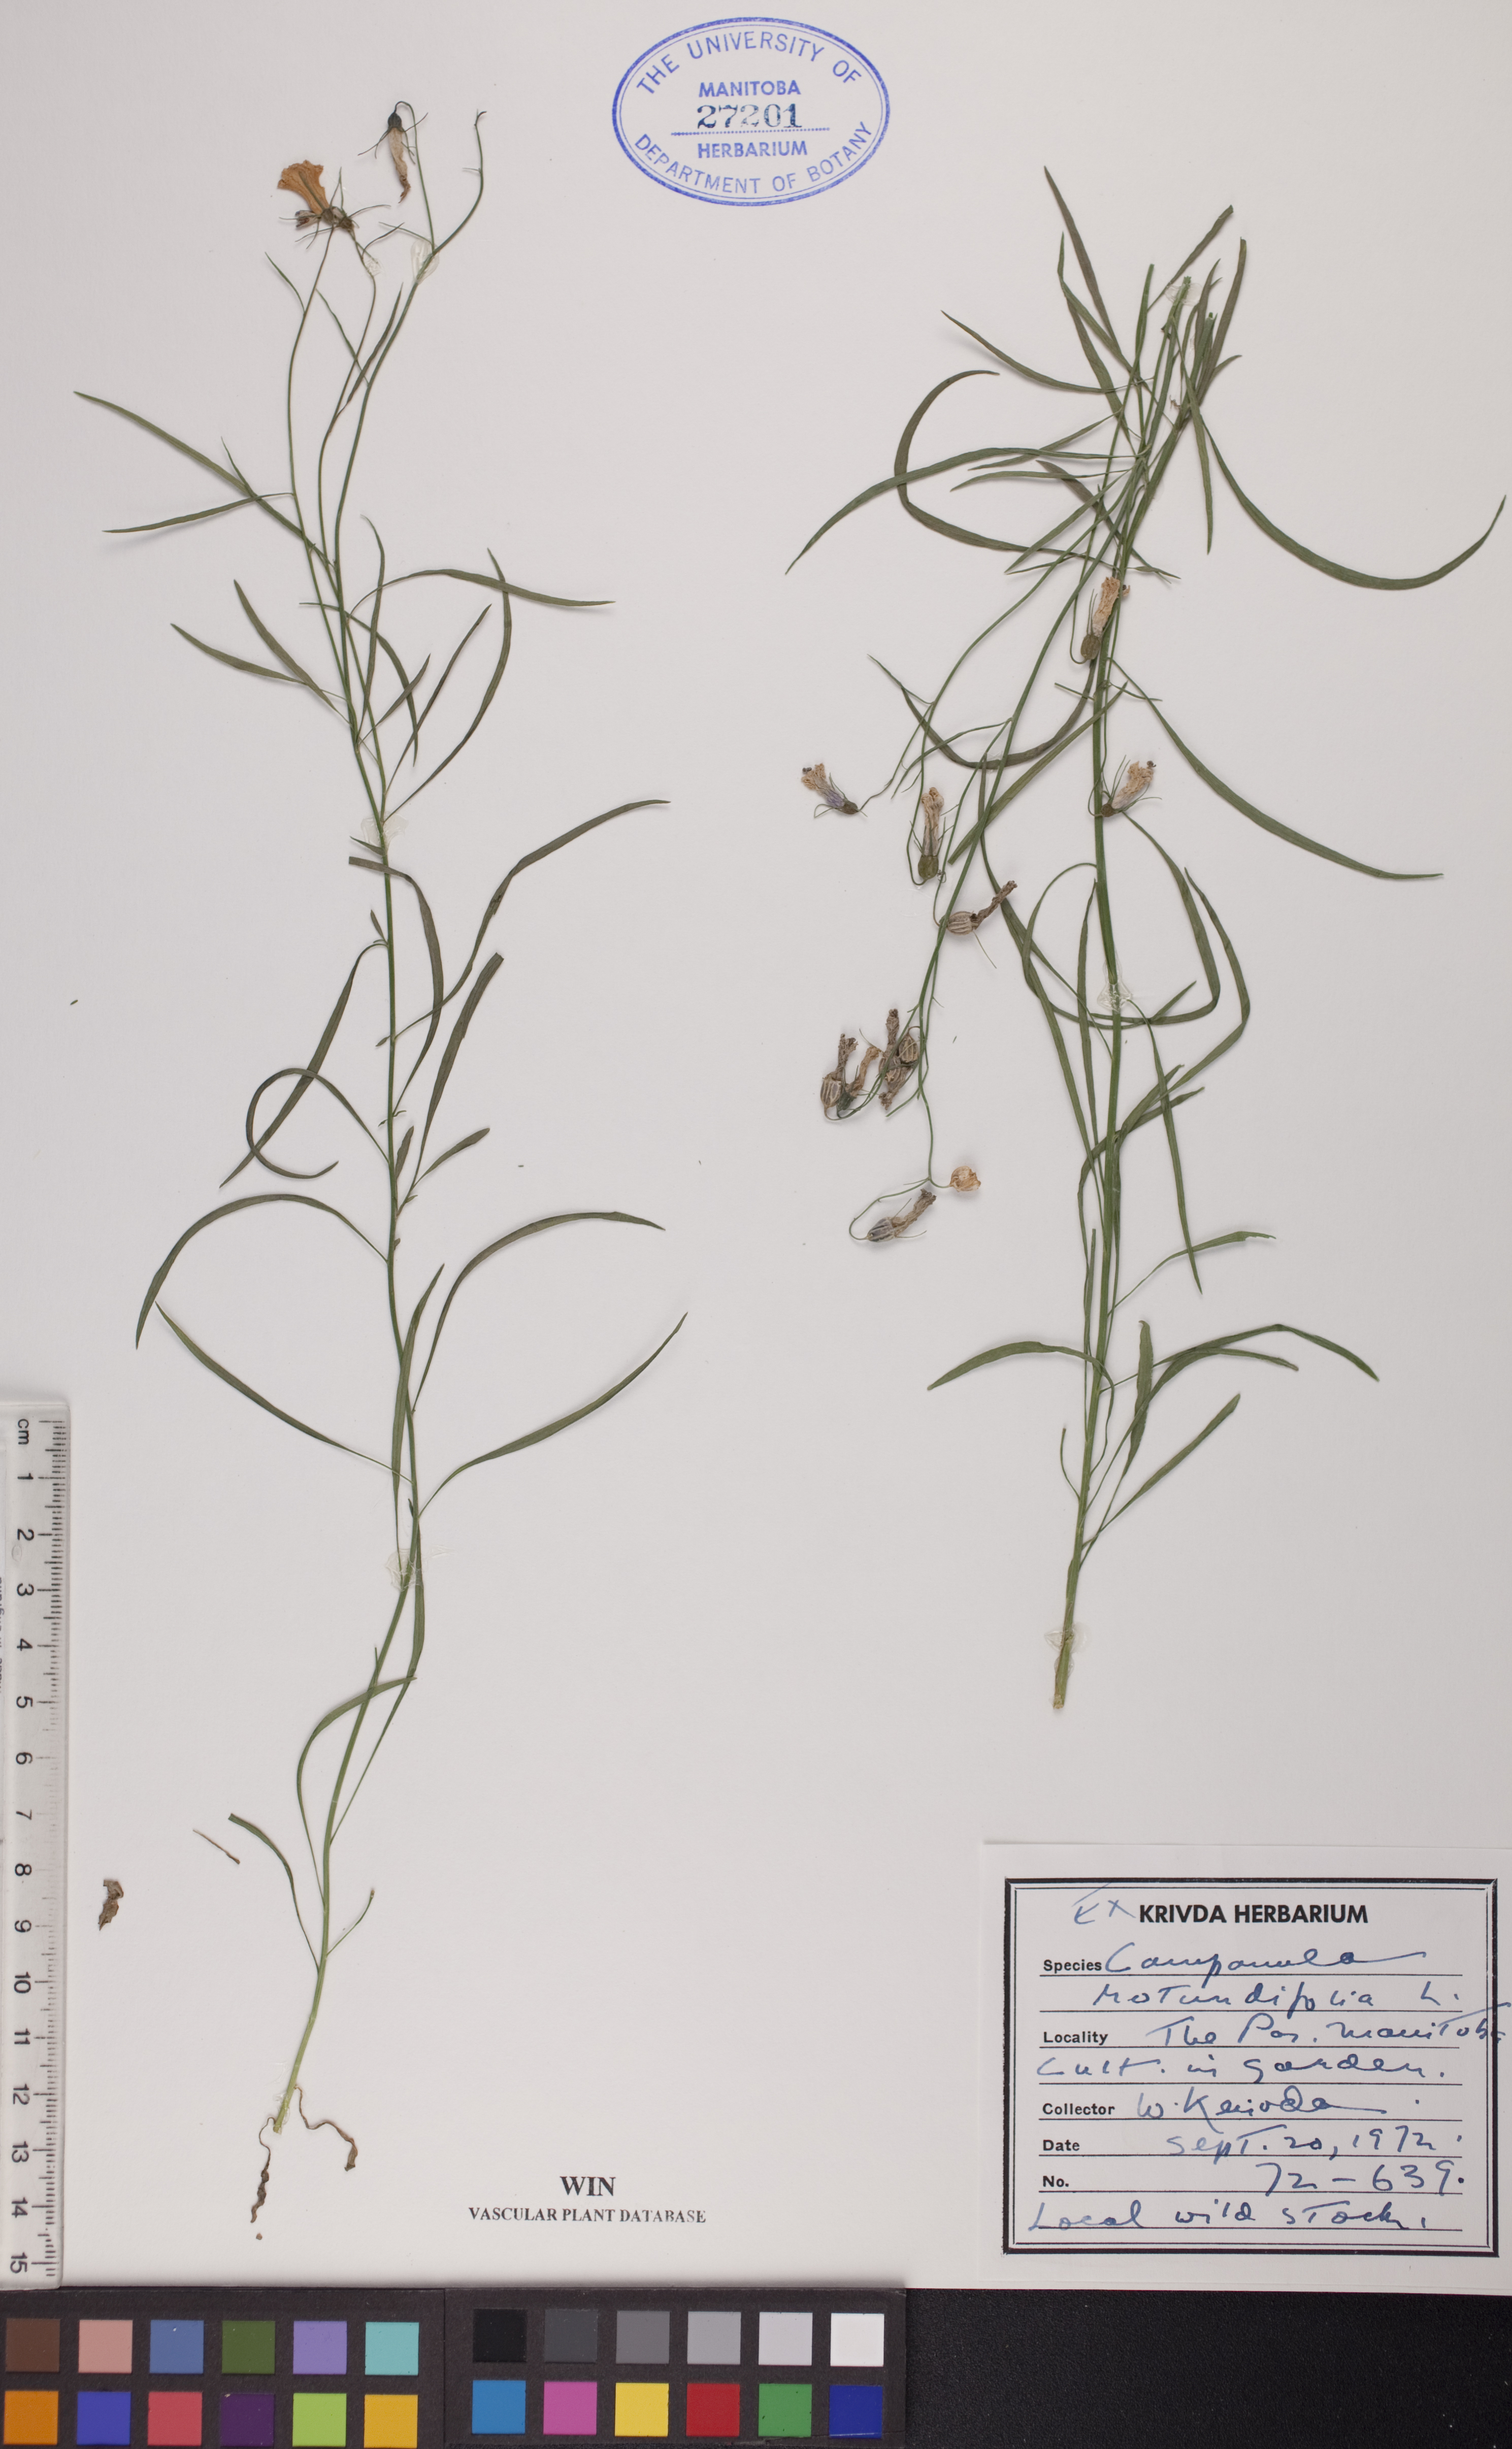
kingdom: Plantae
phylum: Tracheophyta
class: Magnoliopsida
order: Asterales
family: Campanulaceae
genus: Campanula
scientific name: Campanula rotundifolia
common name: Harebell
